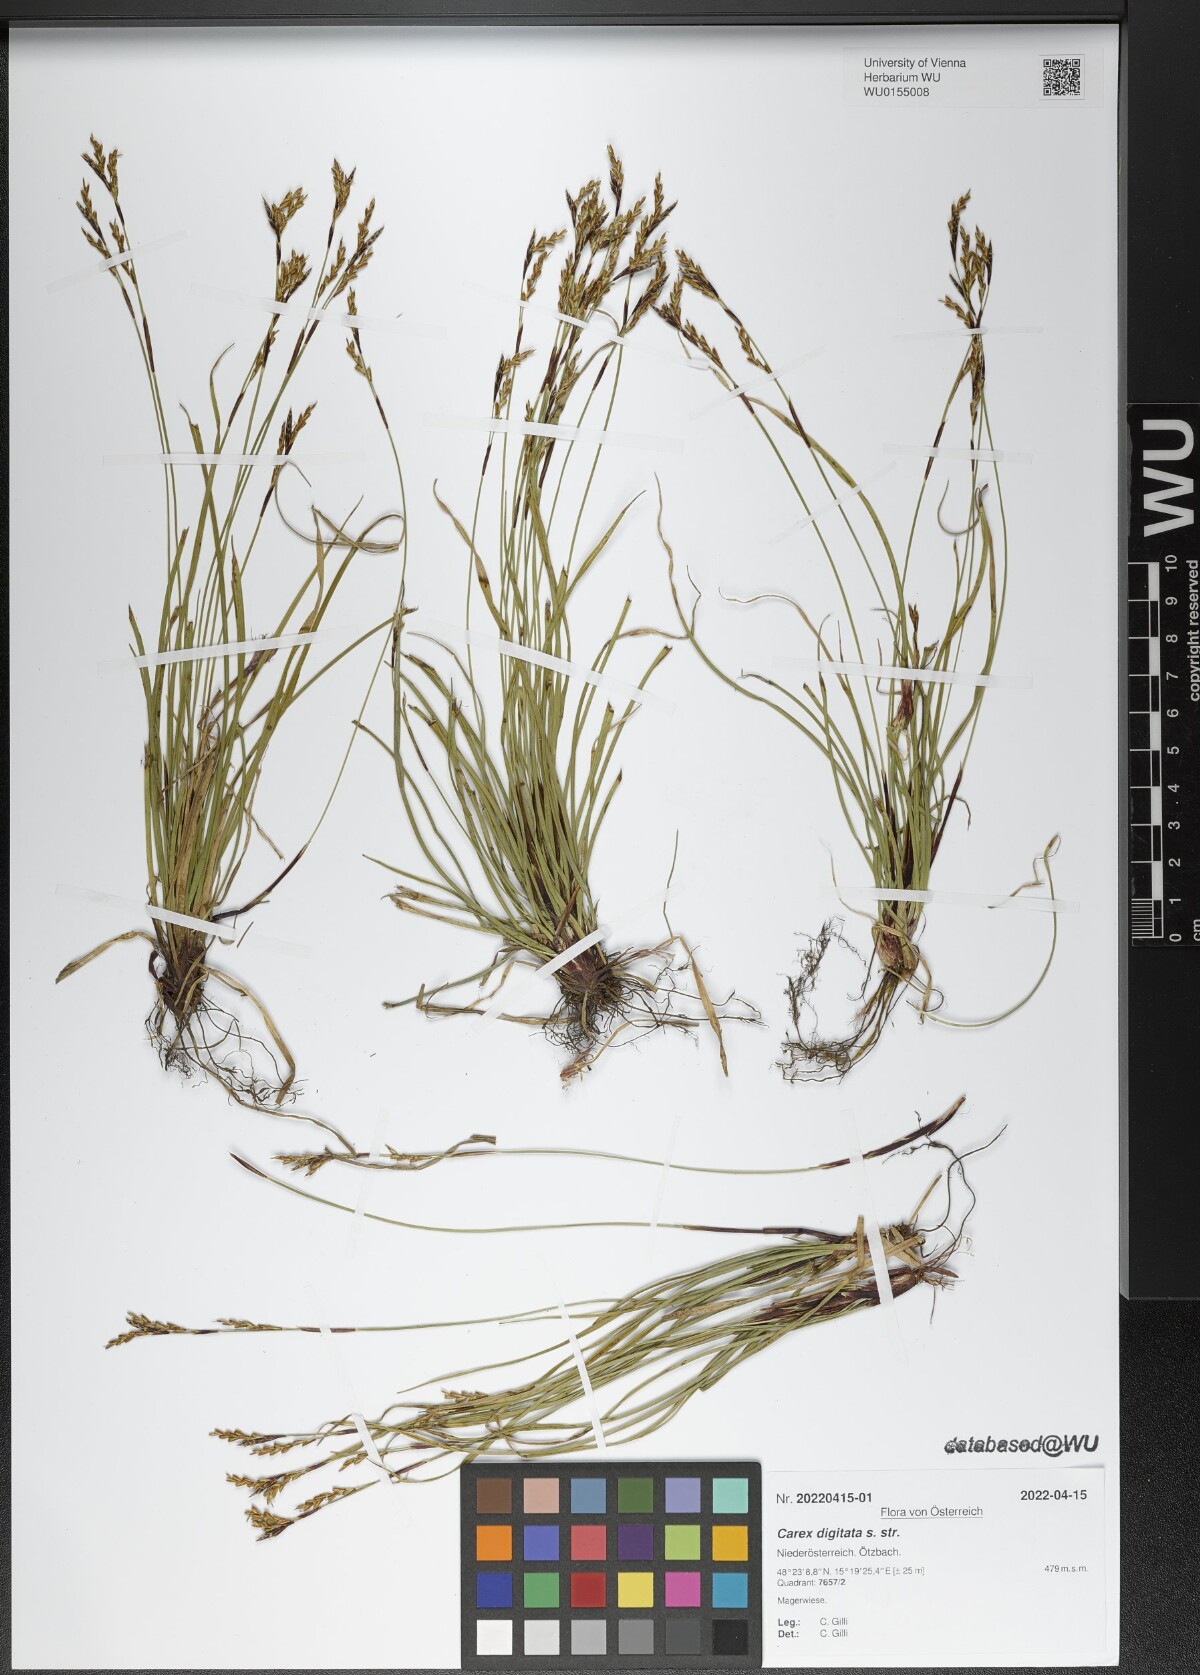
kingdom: Plantae
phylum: Tracheophyta
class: Liliopsida
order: Poales
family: Cyperaceae
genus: Carex
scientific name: Carex digitata
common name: Fingered sedge
